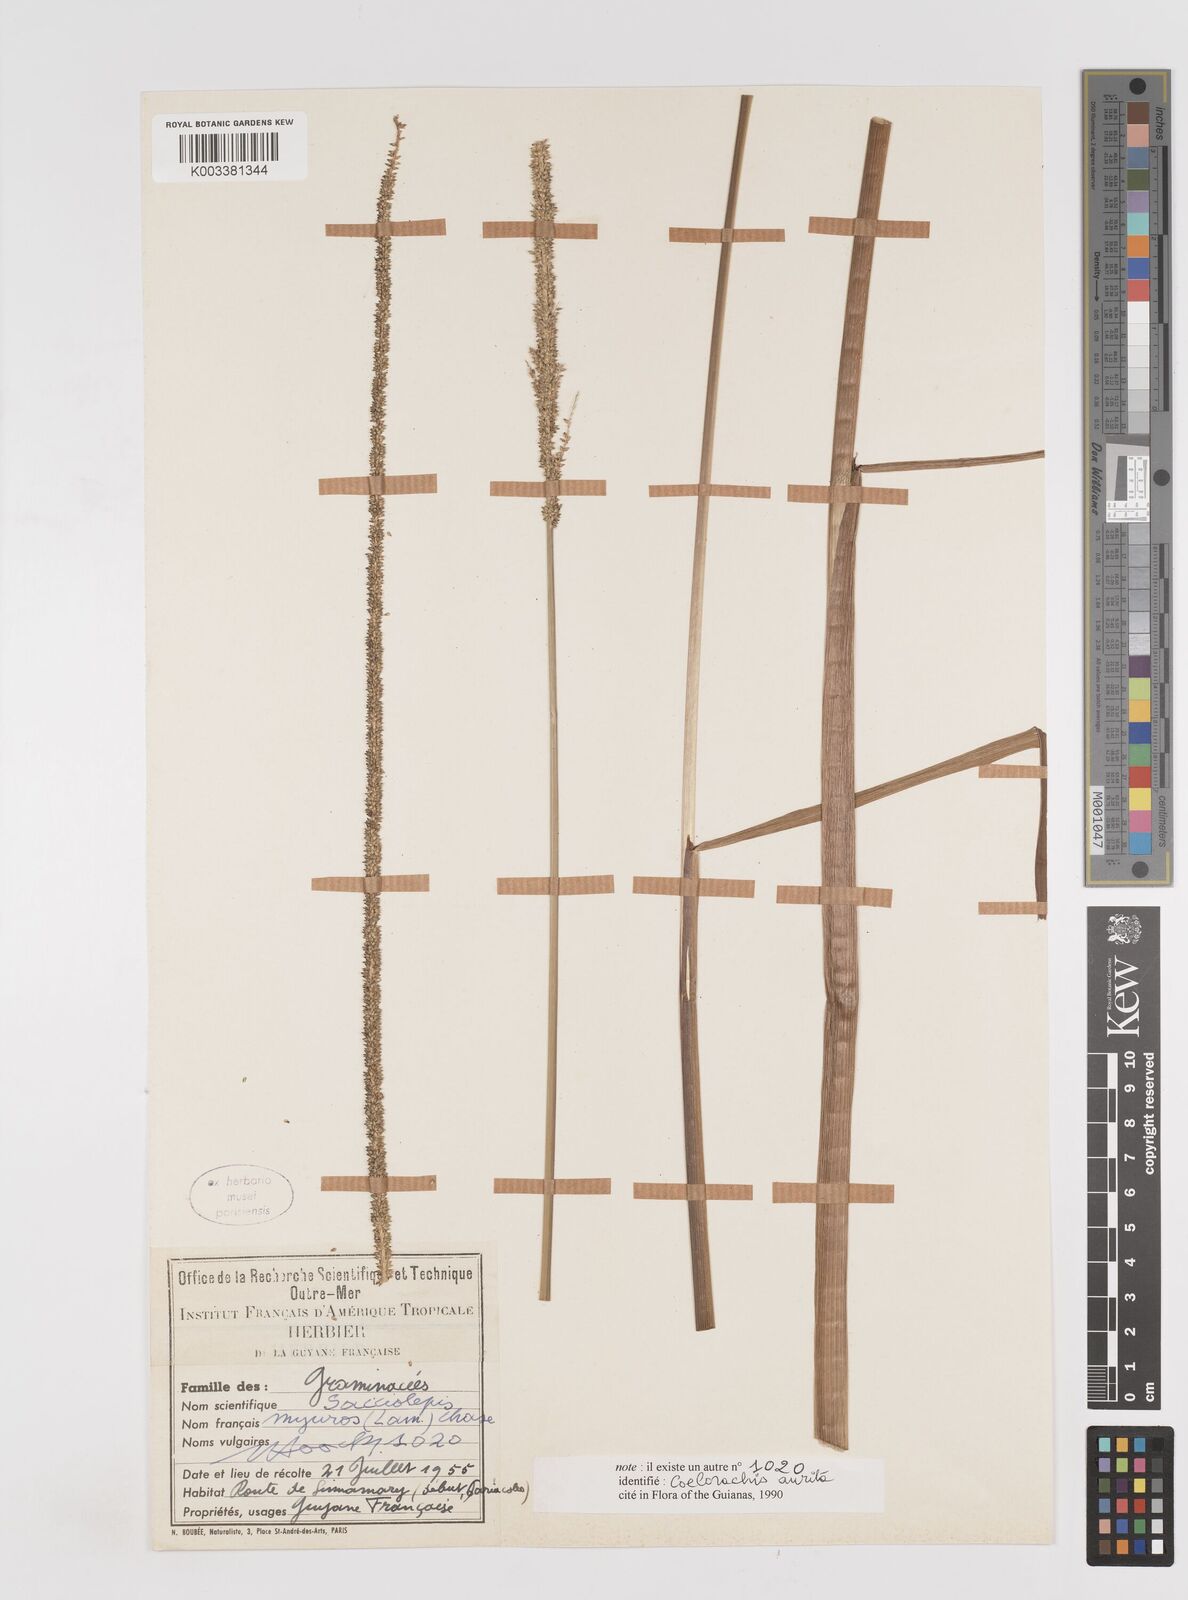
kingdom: Plantae
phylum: Tracheophyta
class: Liliopsida
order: Poales
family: Poaceae
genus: Sacciolepis
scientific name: Sacciolepis myuros
